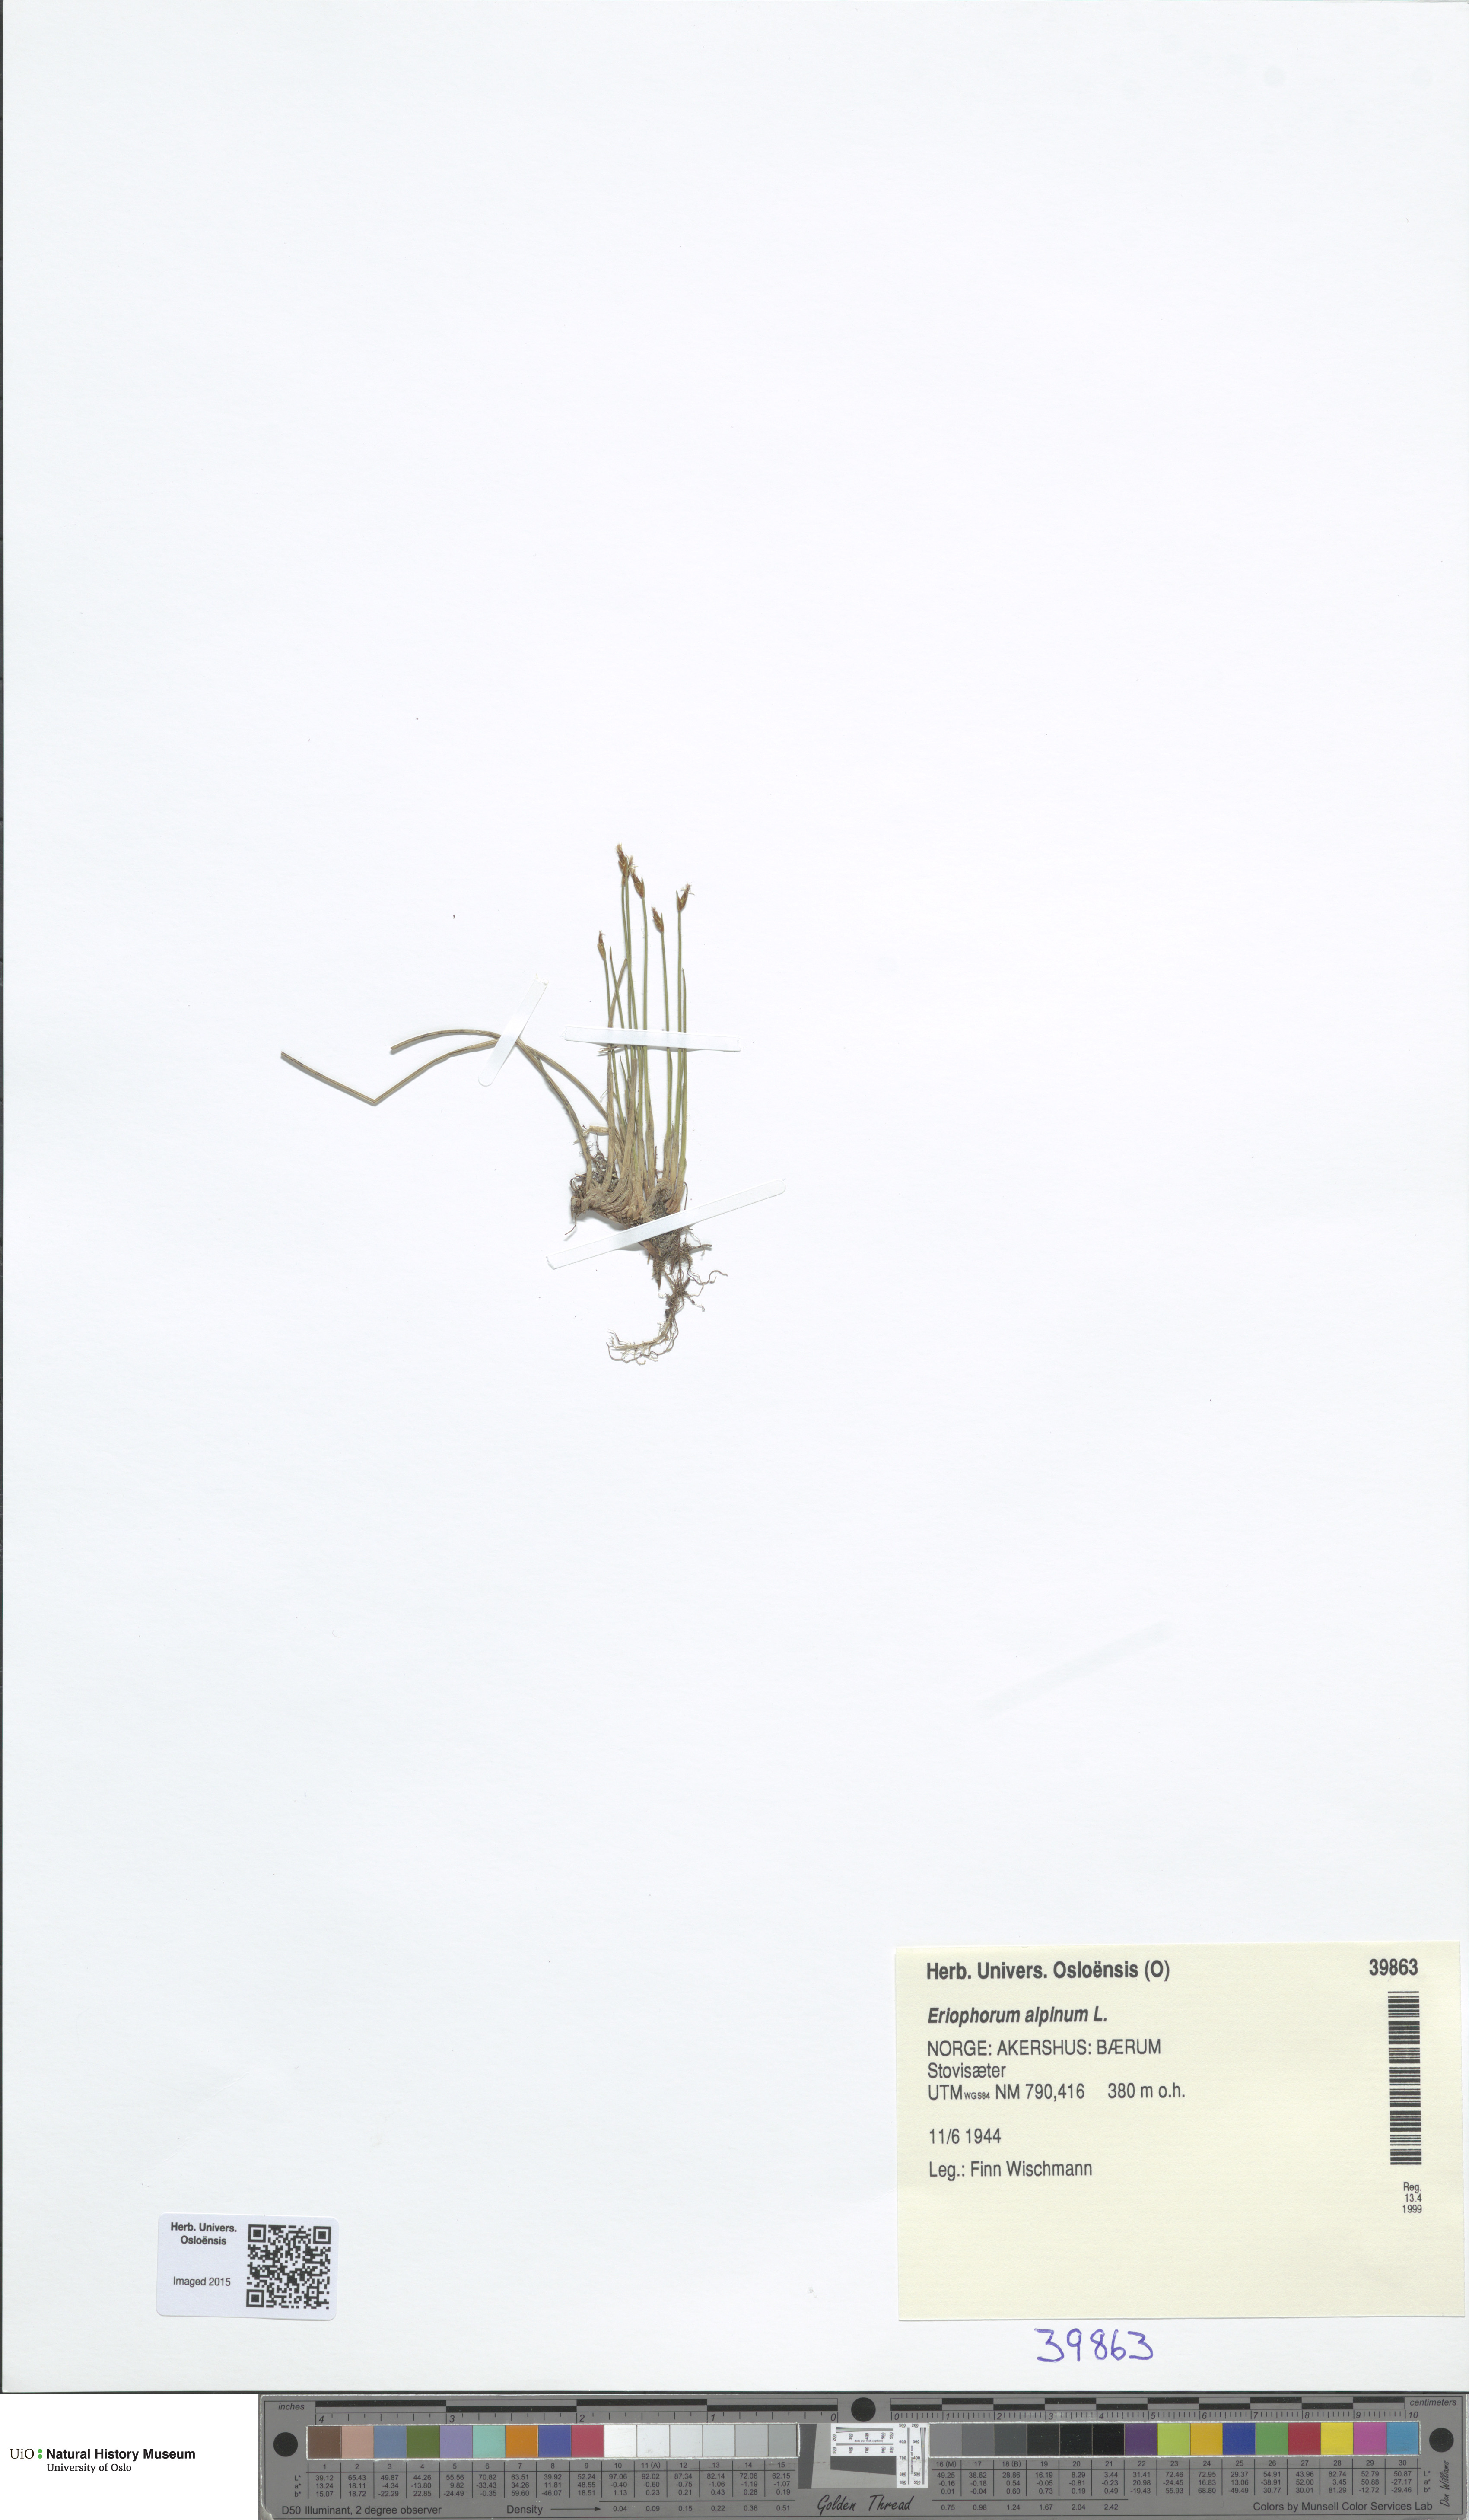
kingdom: Plantae
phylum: Tracheophyta
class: Liliopsida
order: Poales
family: Cyperaceae
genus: Trichophorum
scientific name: Trichophorum alpinum
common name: Alpine bulrush
